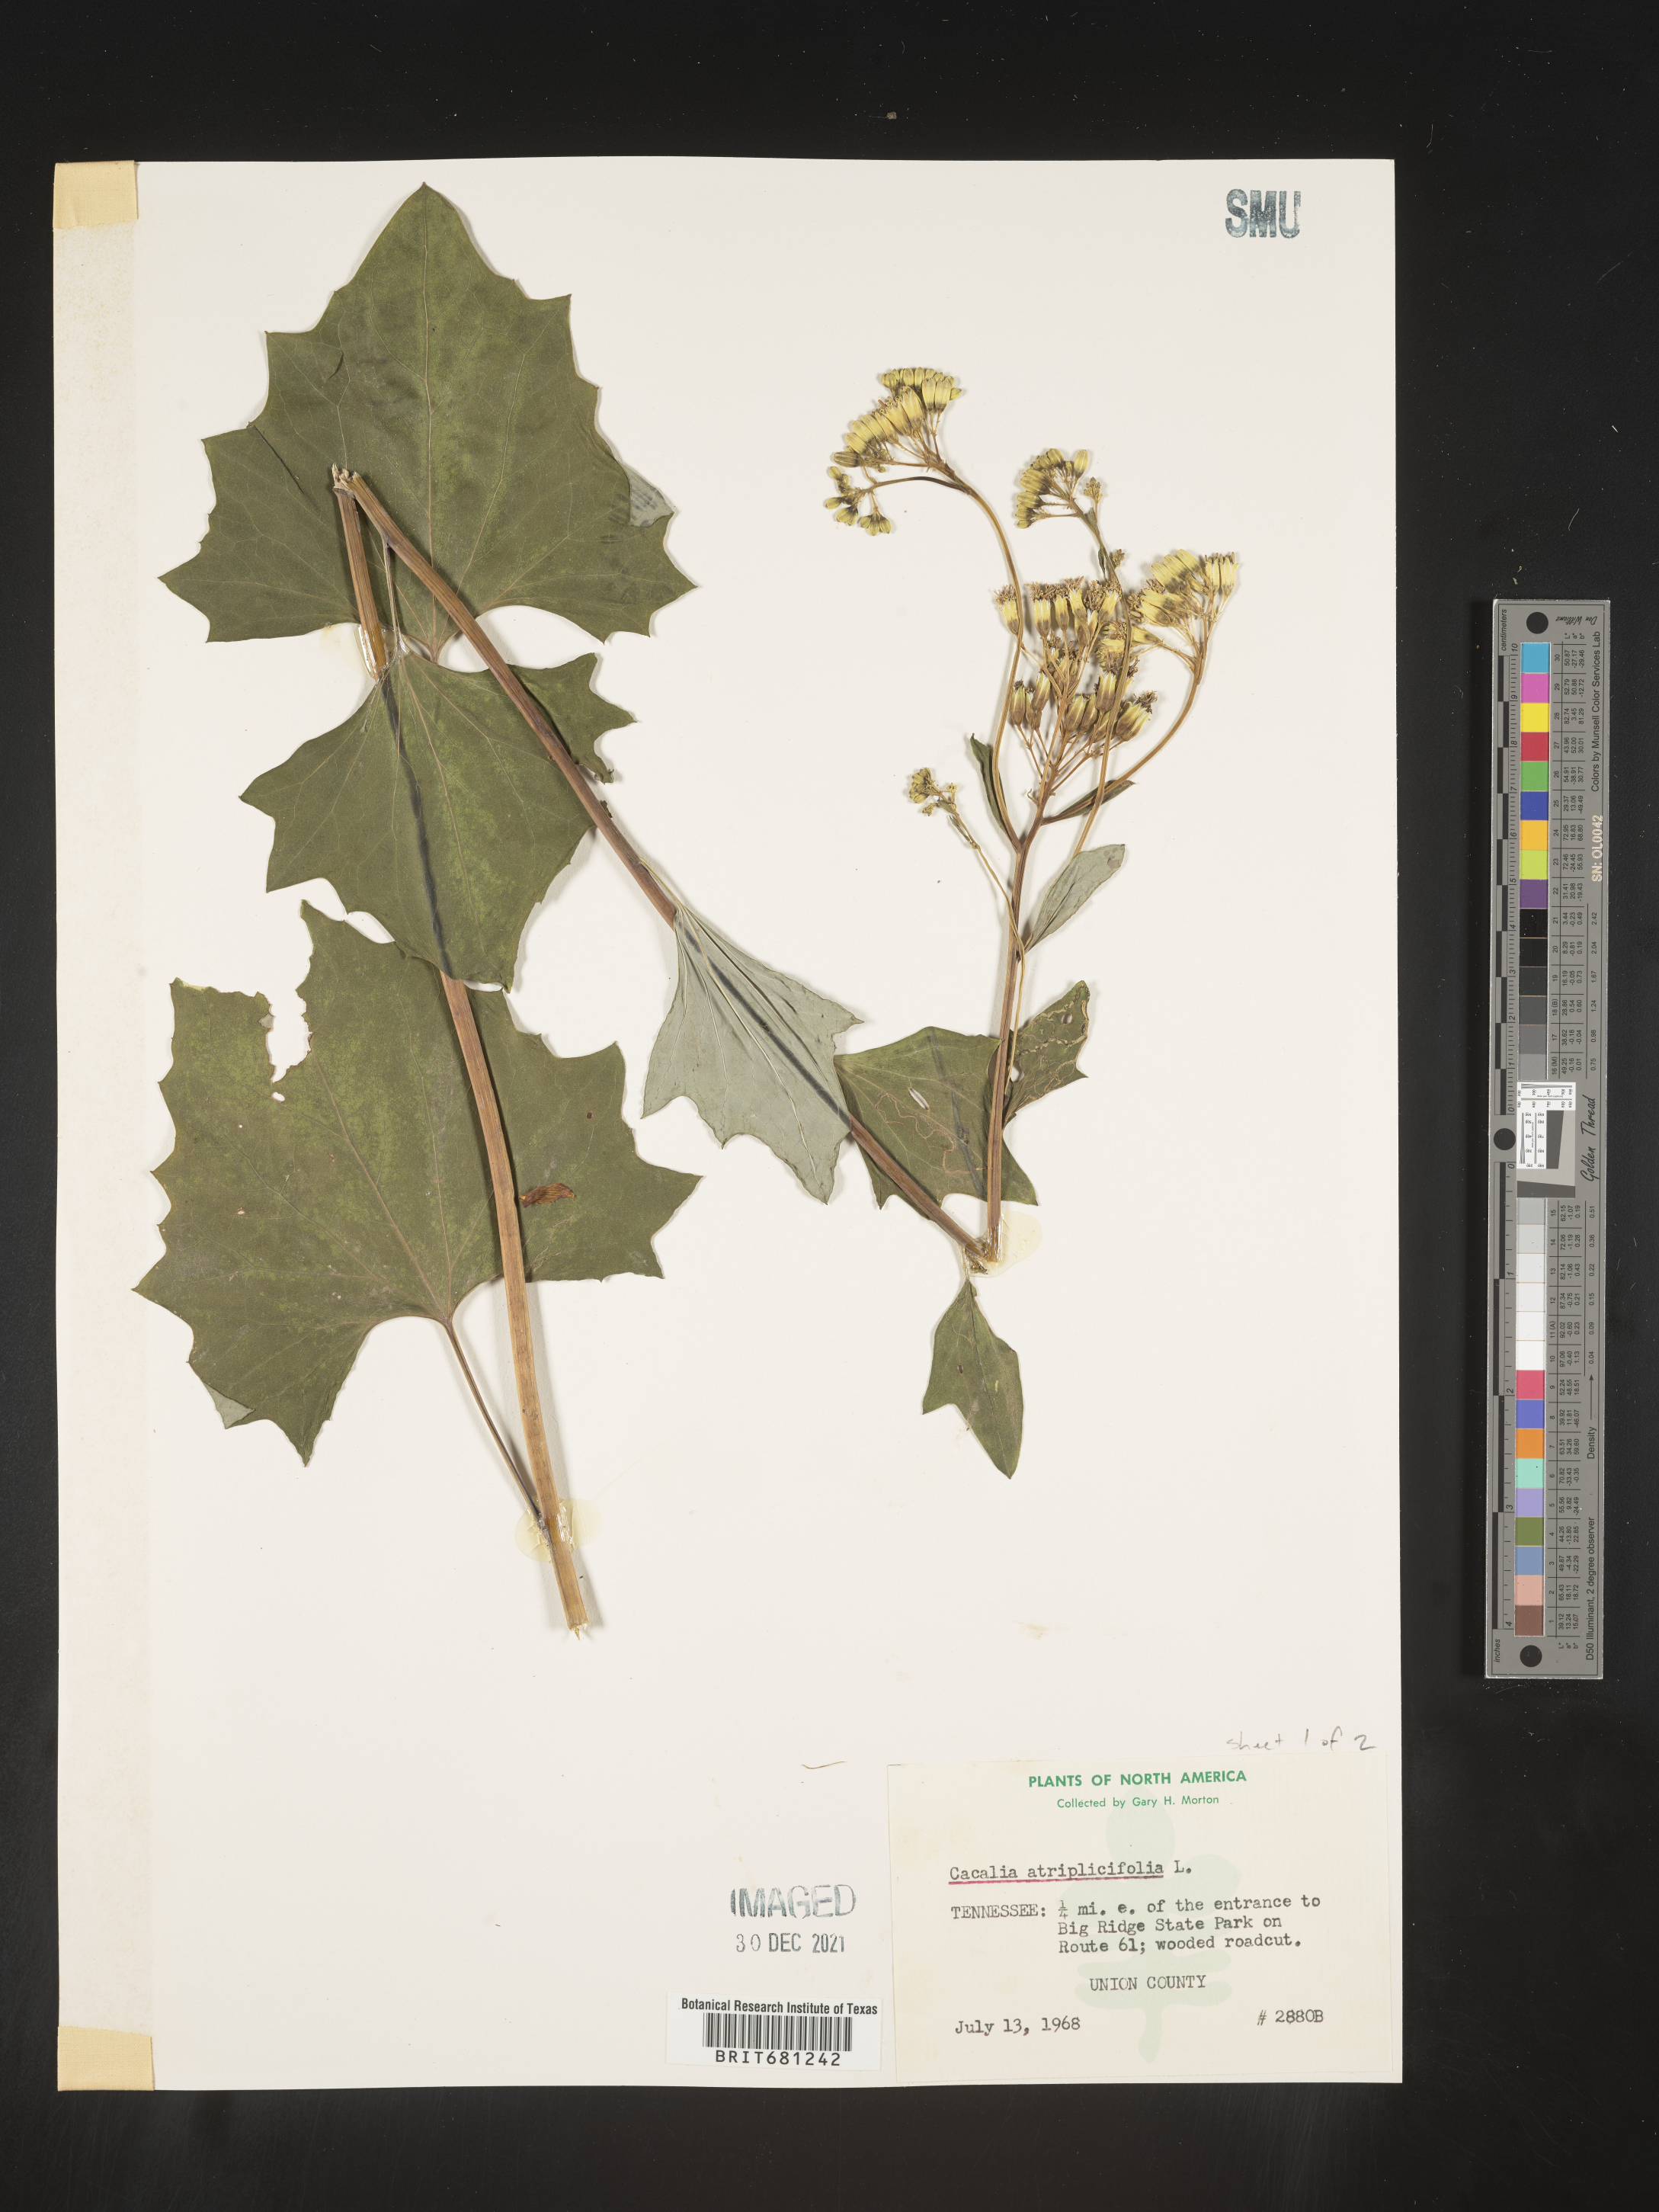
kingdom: Plantae
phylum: Tracheophyta
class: Magnoliopsida
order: Asterales
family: Asteraceae
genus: Arnoglossum
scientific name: Arnoglossum atriplicifolium
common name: Pale indian-plantain
